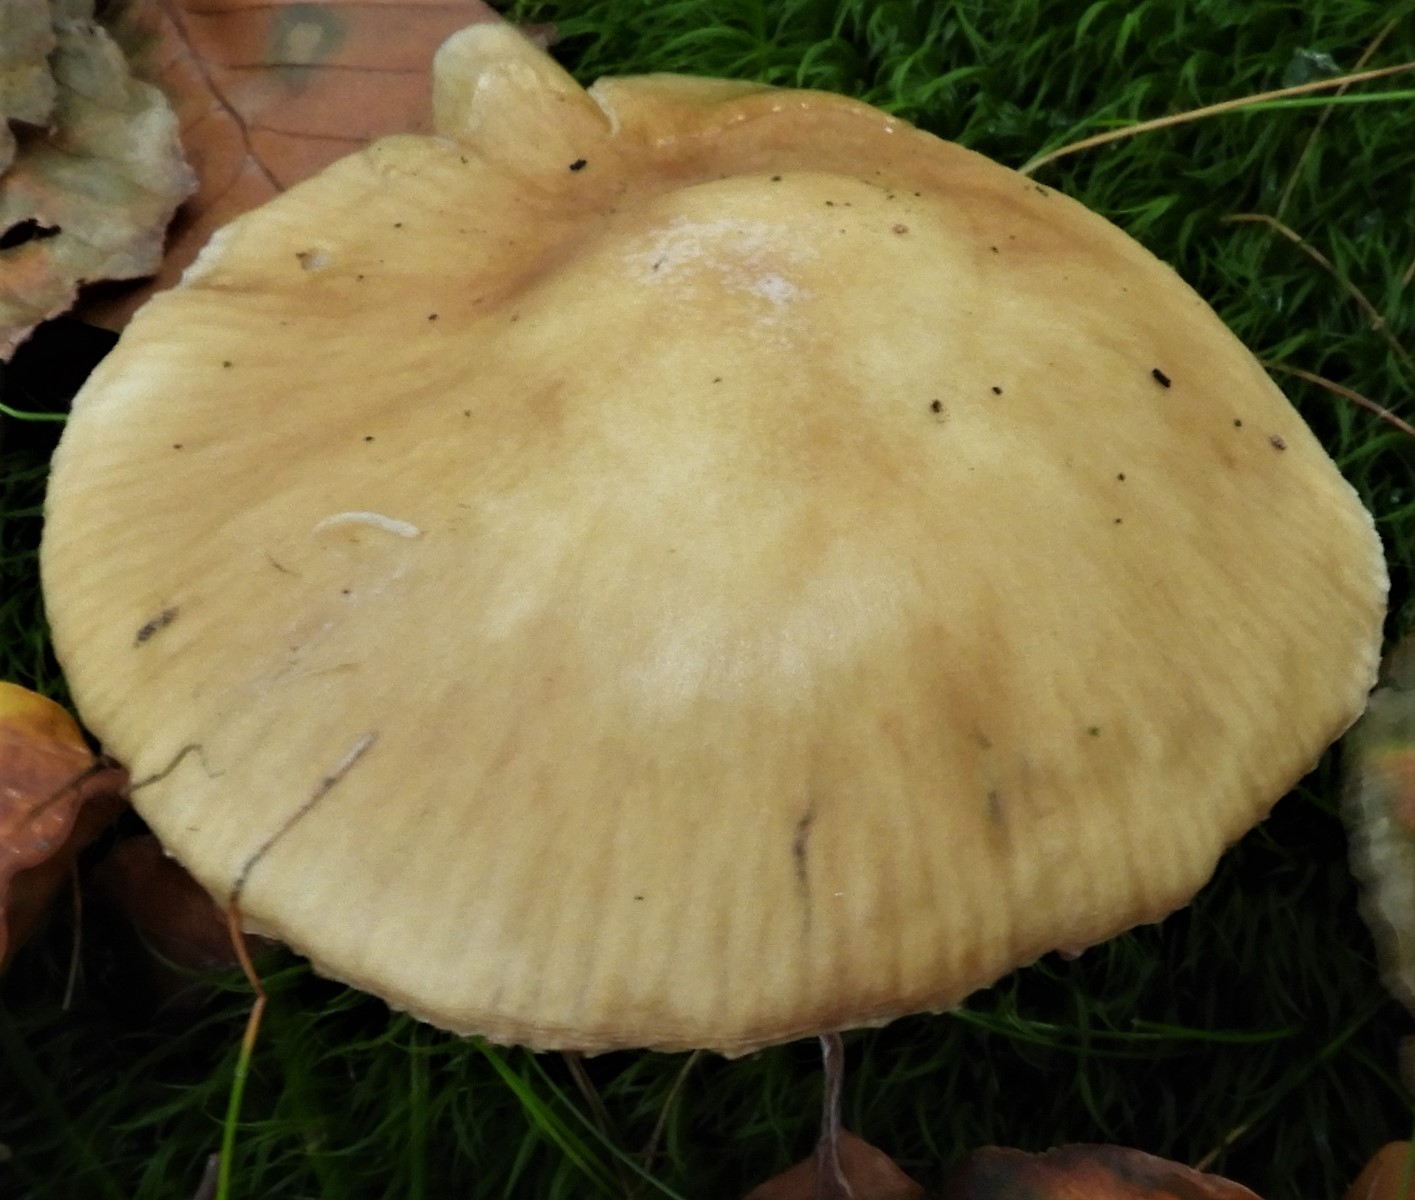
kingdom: Fungi
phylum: Basidiomycota
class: Agaricomycetes
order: Agaricales
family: Cortinariaceae
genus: Cortinarius
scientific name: Cortinarius
